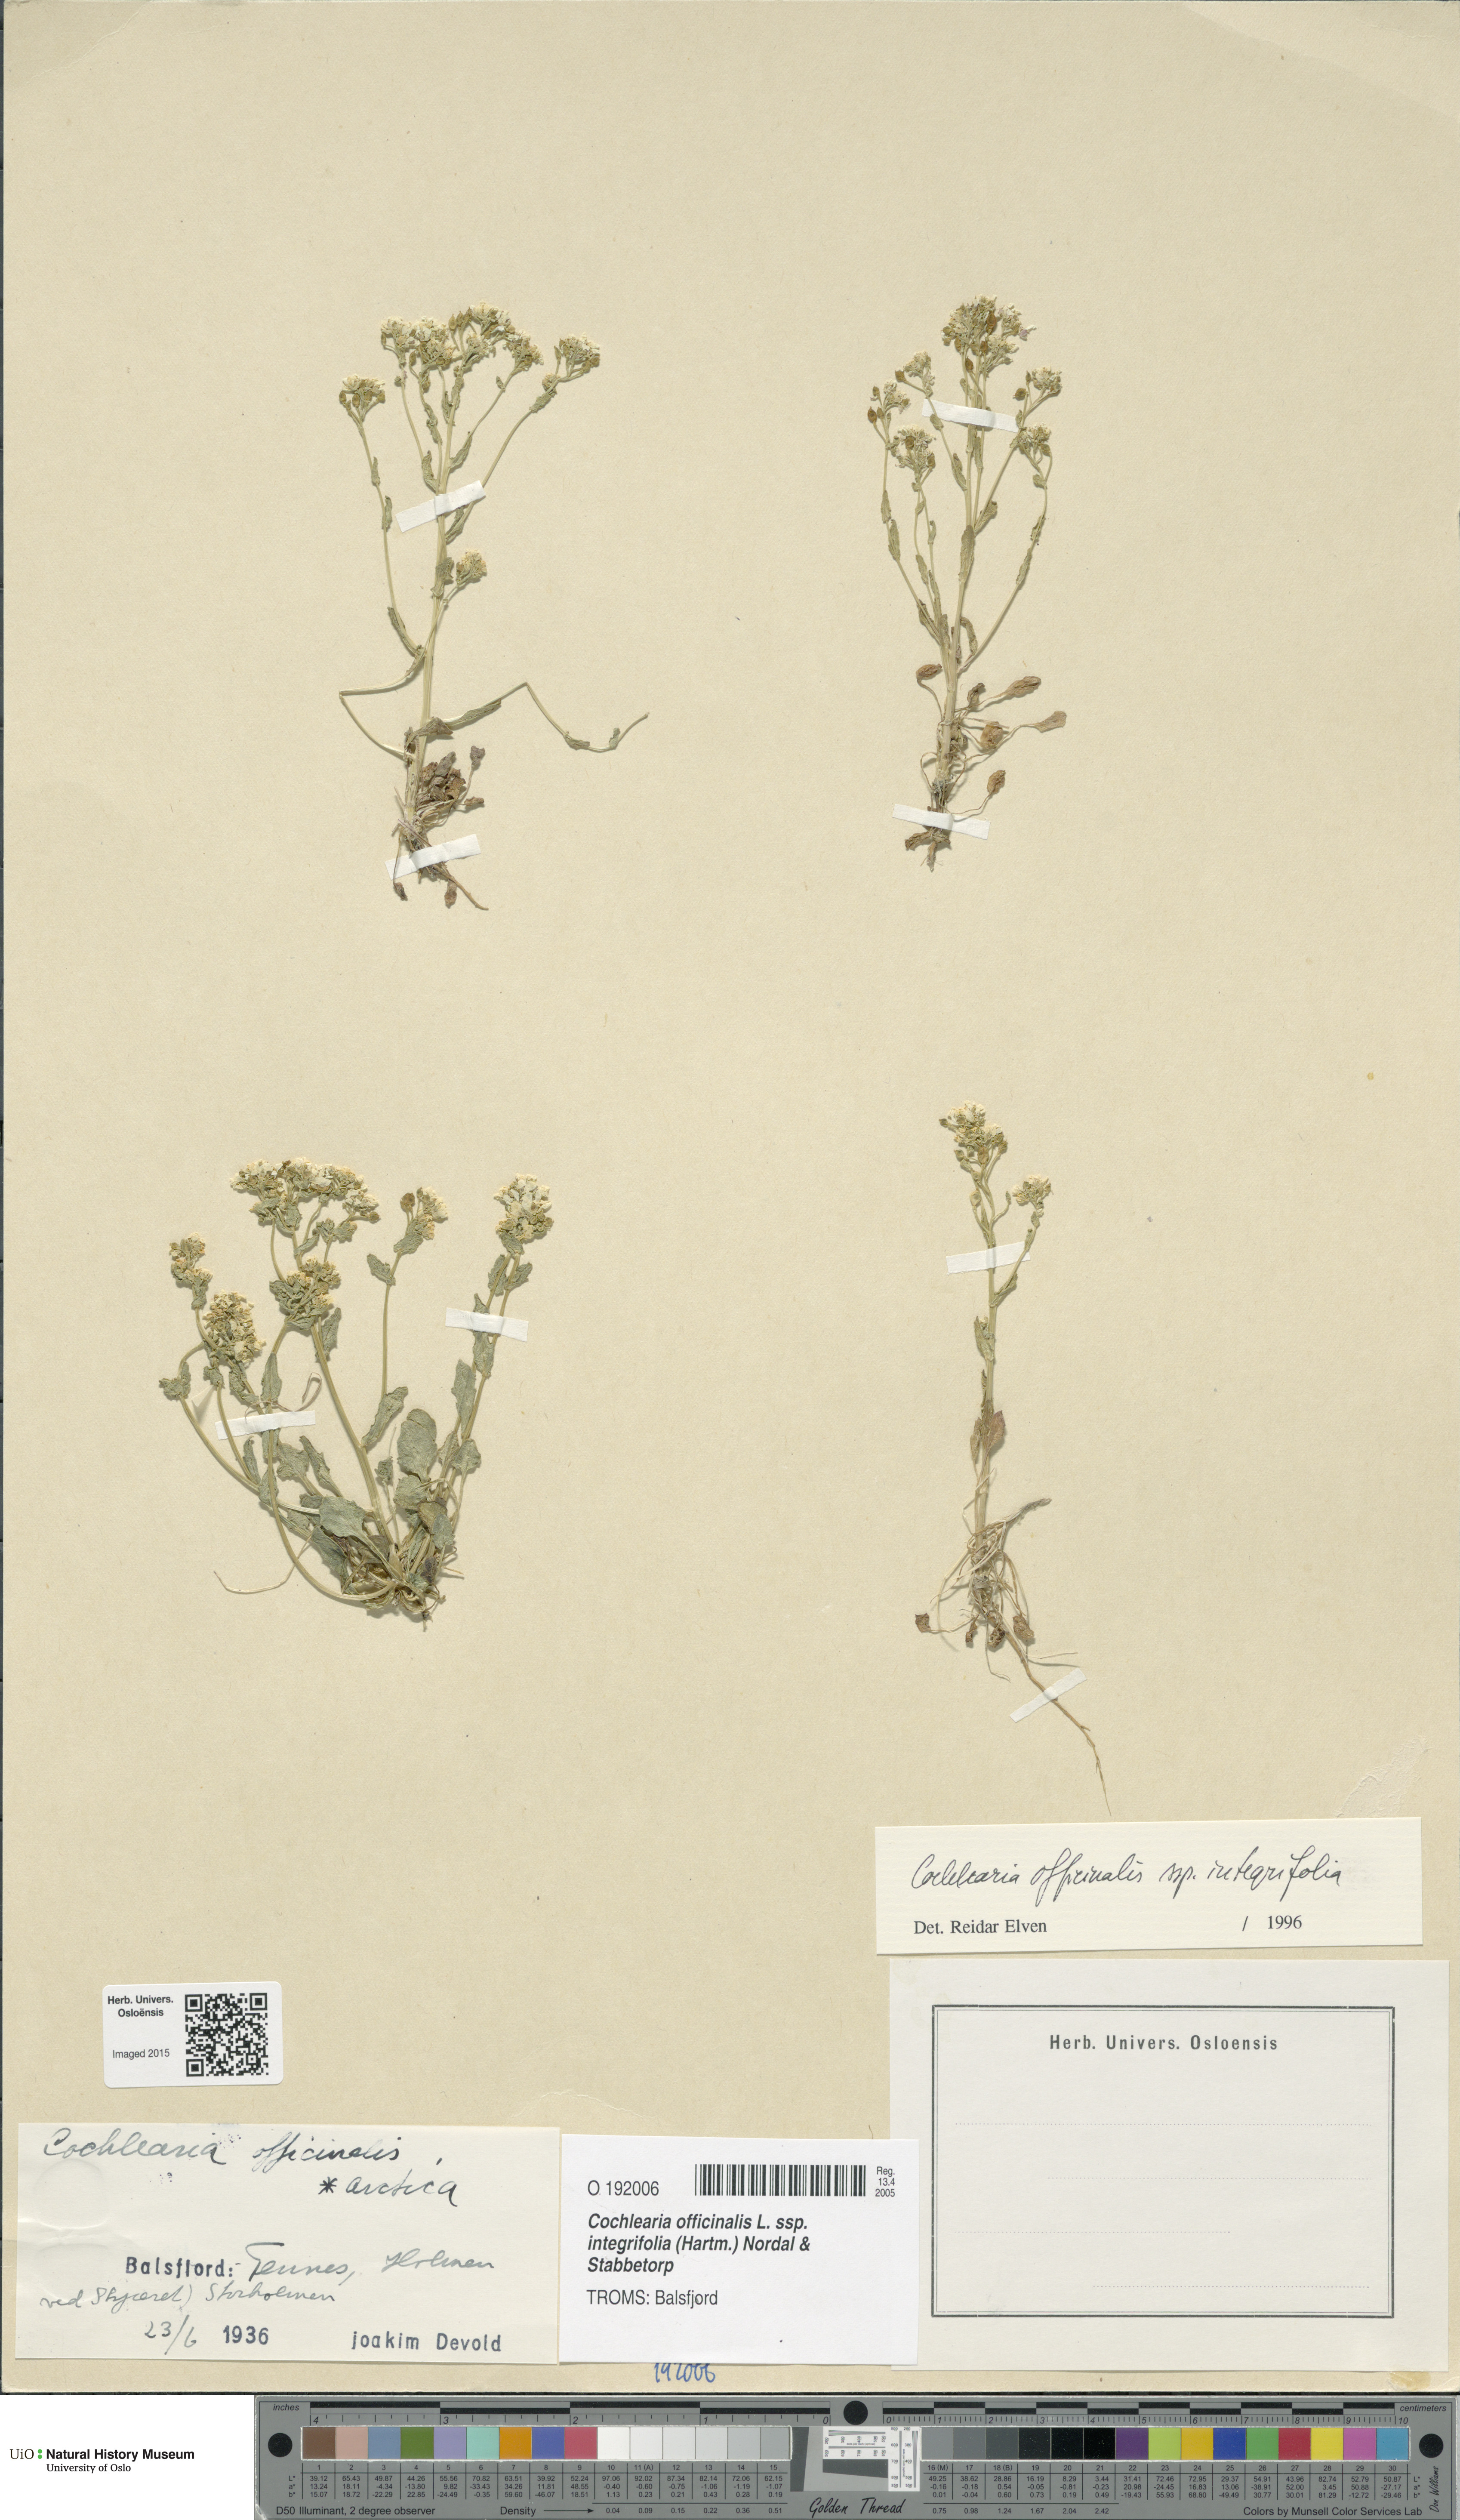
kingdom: Plantae
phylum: Tracheophyta
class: Magnoliopsida
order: Brassicales
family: Brassicaceae
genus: Cochlearia
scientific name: Cochlearia officinalis
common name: Scurvy-grass
